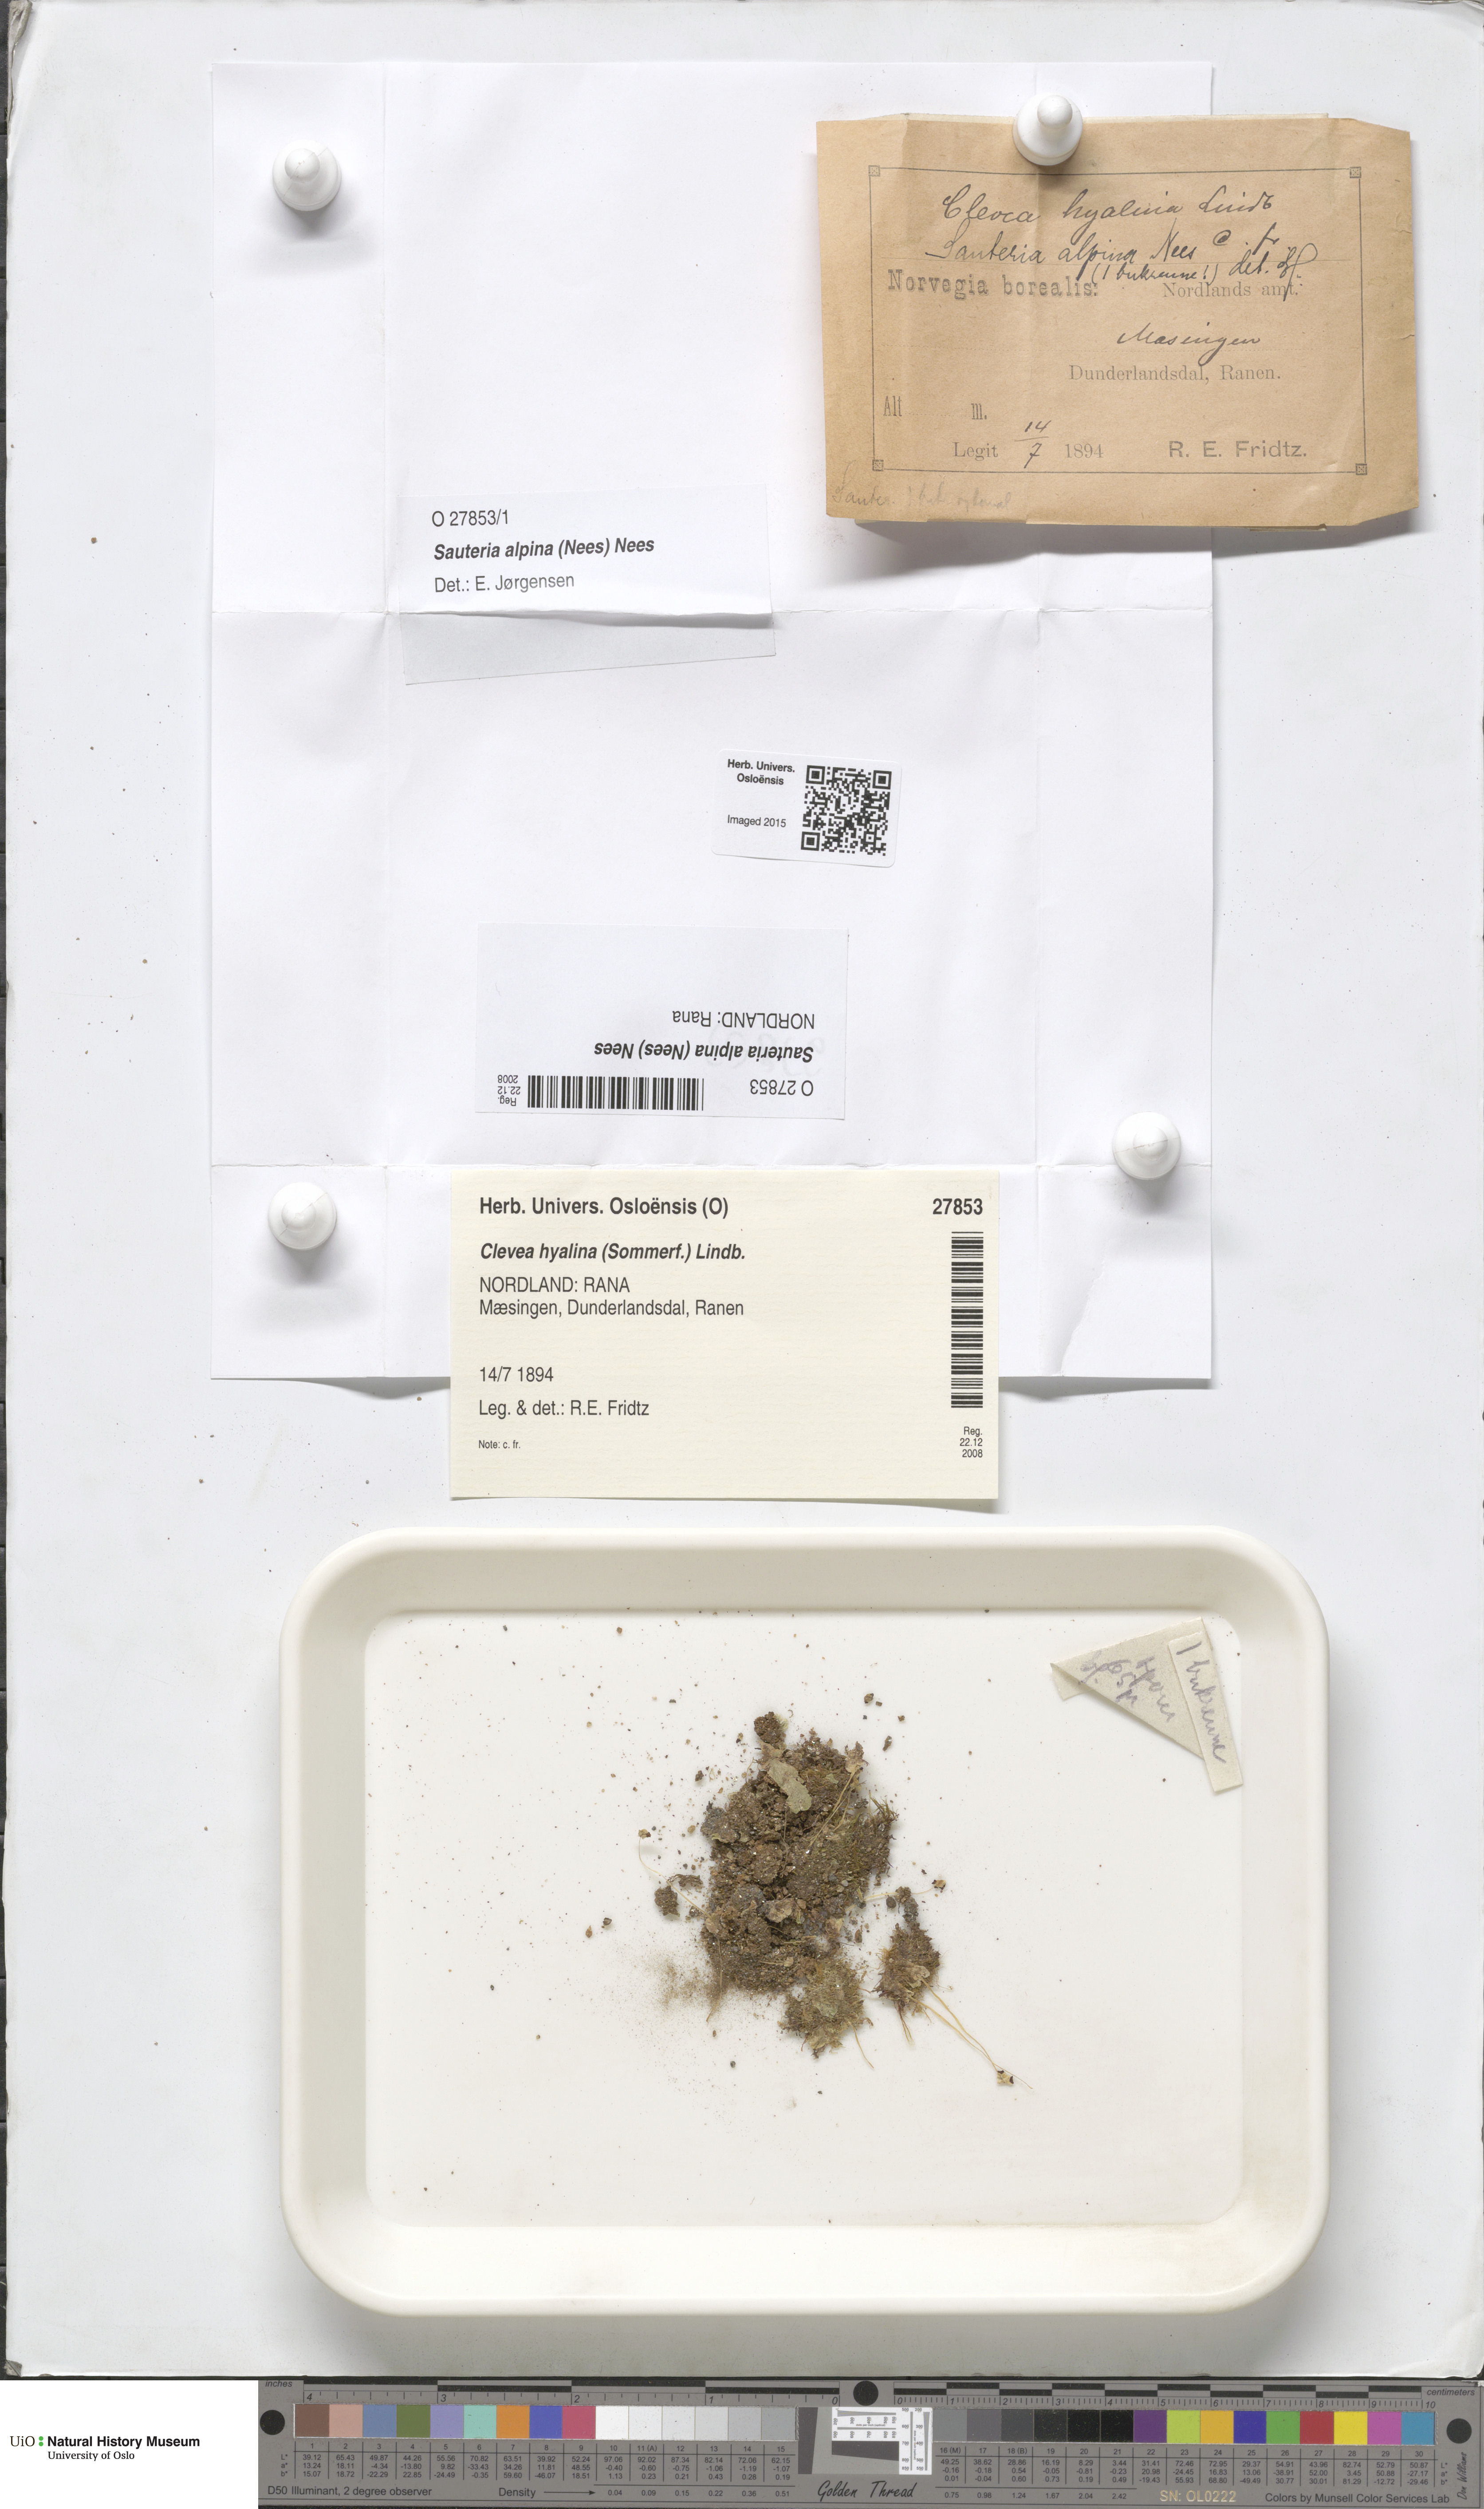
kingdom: Plantae
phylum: Marchantiophyta
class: Marchantiopsida
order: Marchantiales
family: Cleveaceae
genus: Sauteria
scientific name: Sauteria alpina
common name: Snow lungwort
